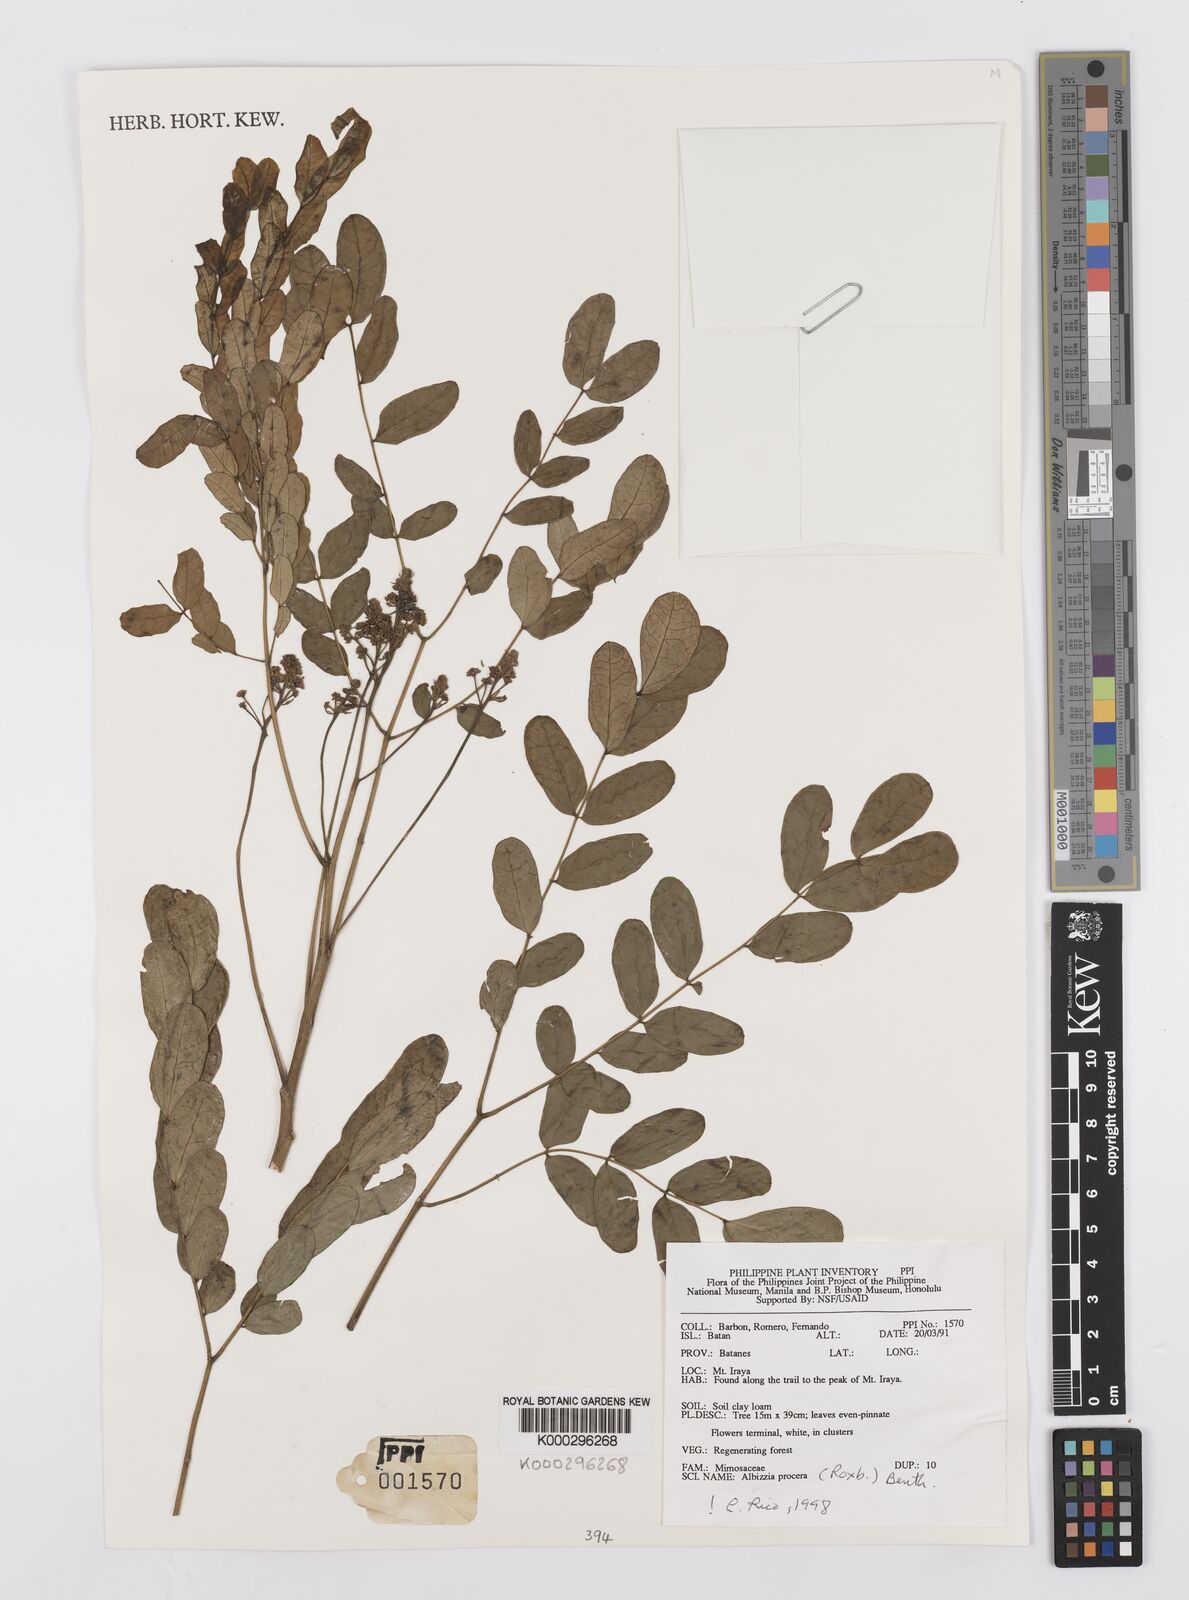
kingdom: Plantae
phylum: Tracheophyta
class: Magnoliopsida
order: Fabales
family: Fabaceae
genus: Albizia
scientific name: Albizia procera
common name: Tall albizia
